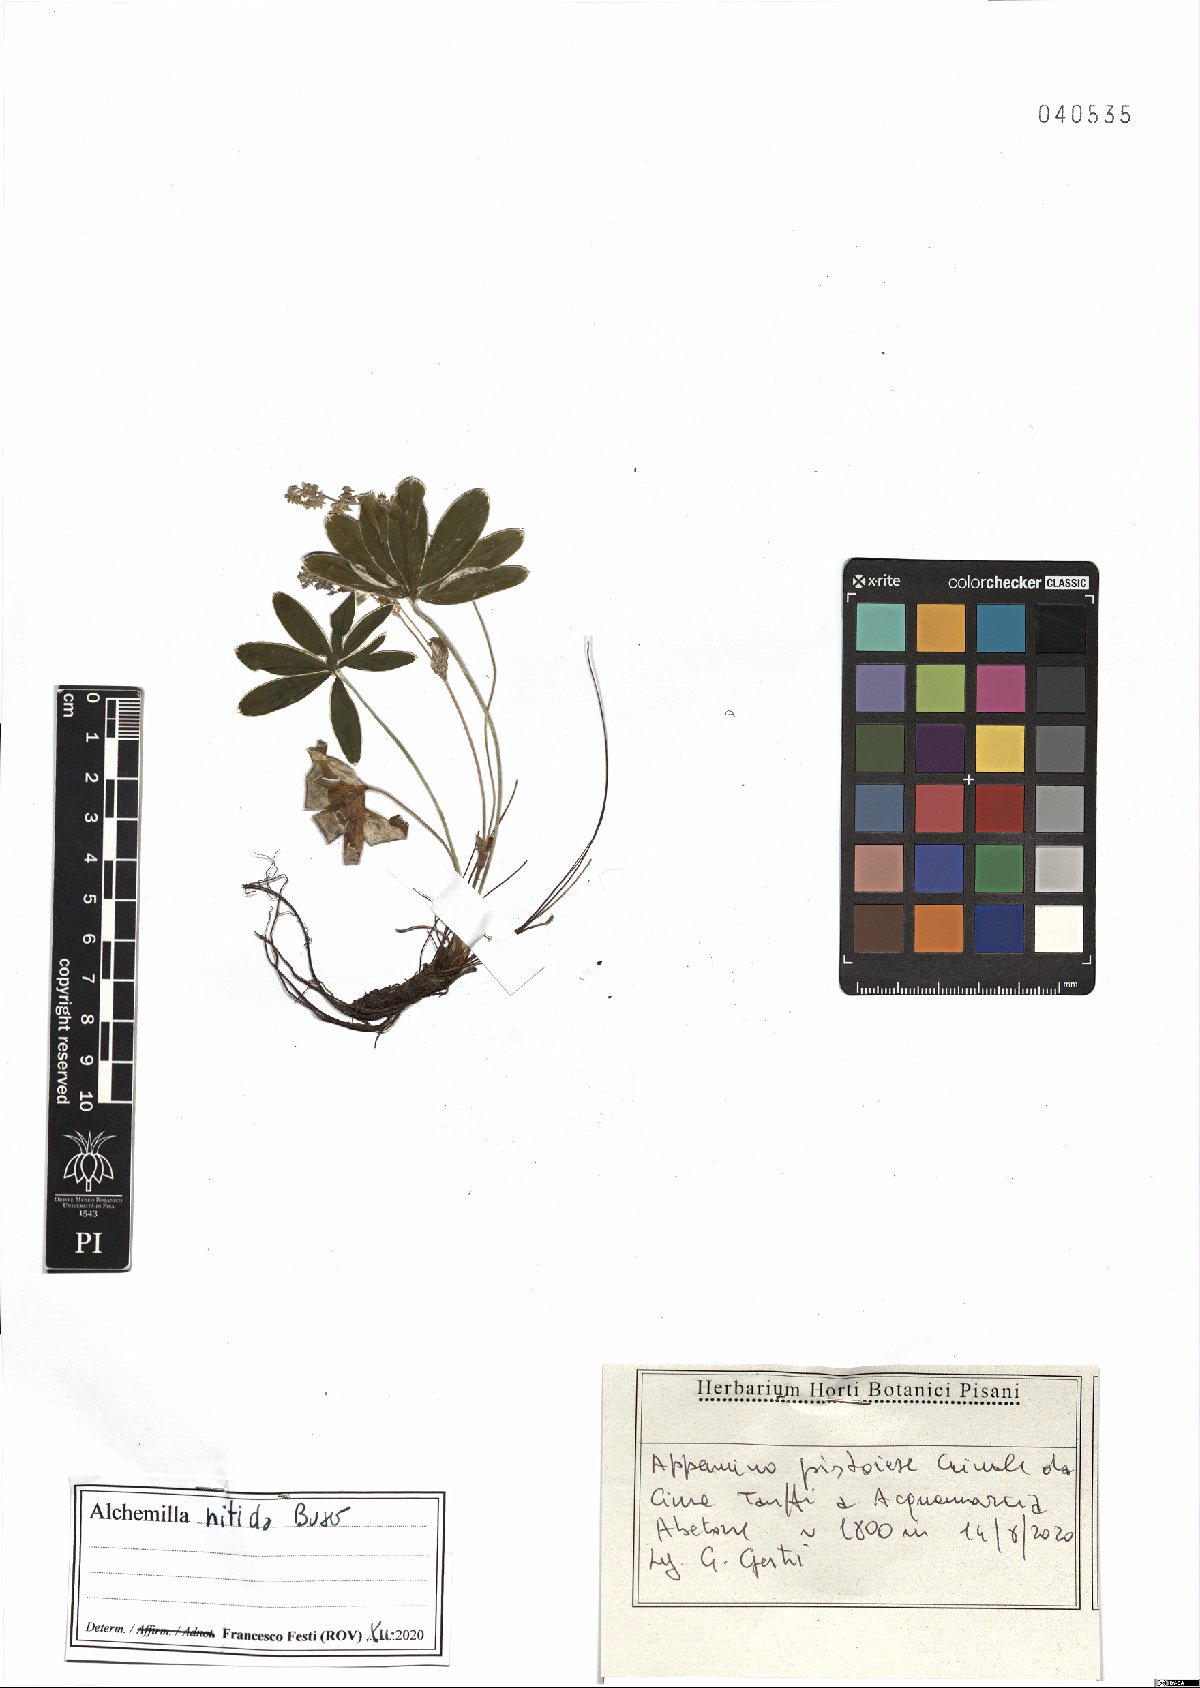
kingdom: Plantae
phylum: Tracheophyta
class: Magnoliopsida
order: Rosales
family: Rosaceae
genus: Alchemilla
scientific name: Alchemilla nitida
